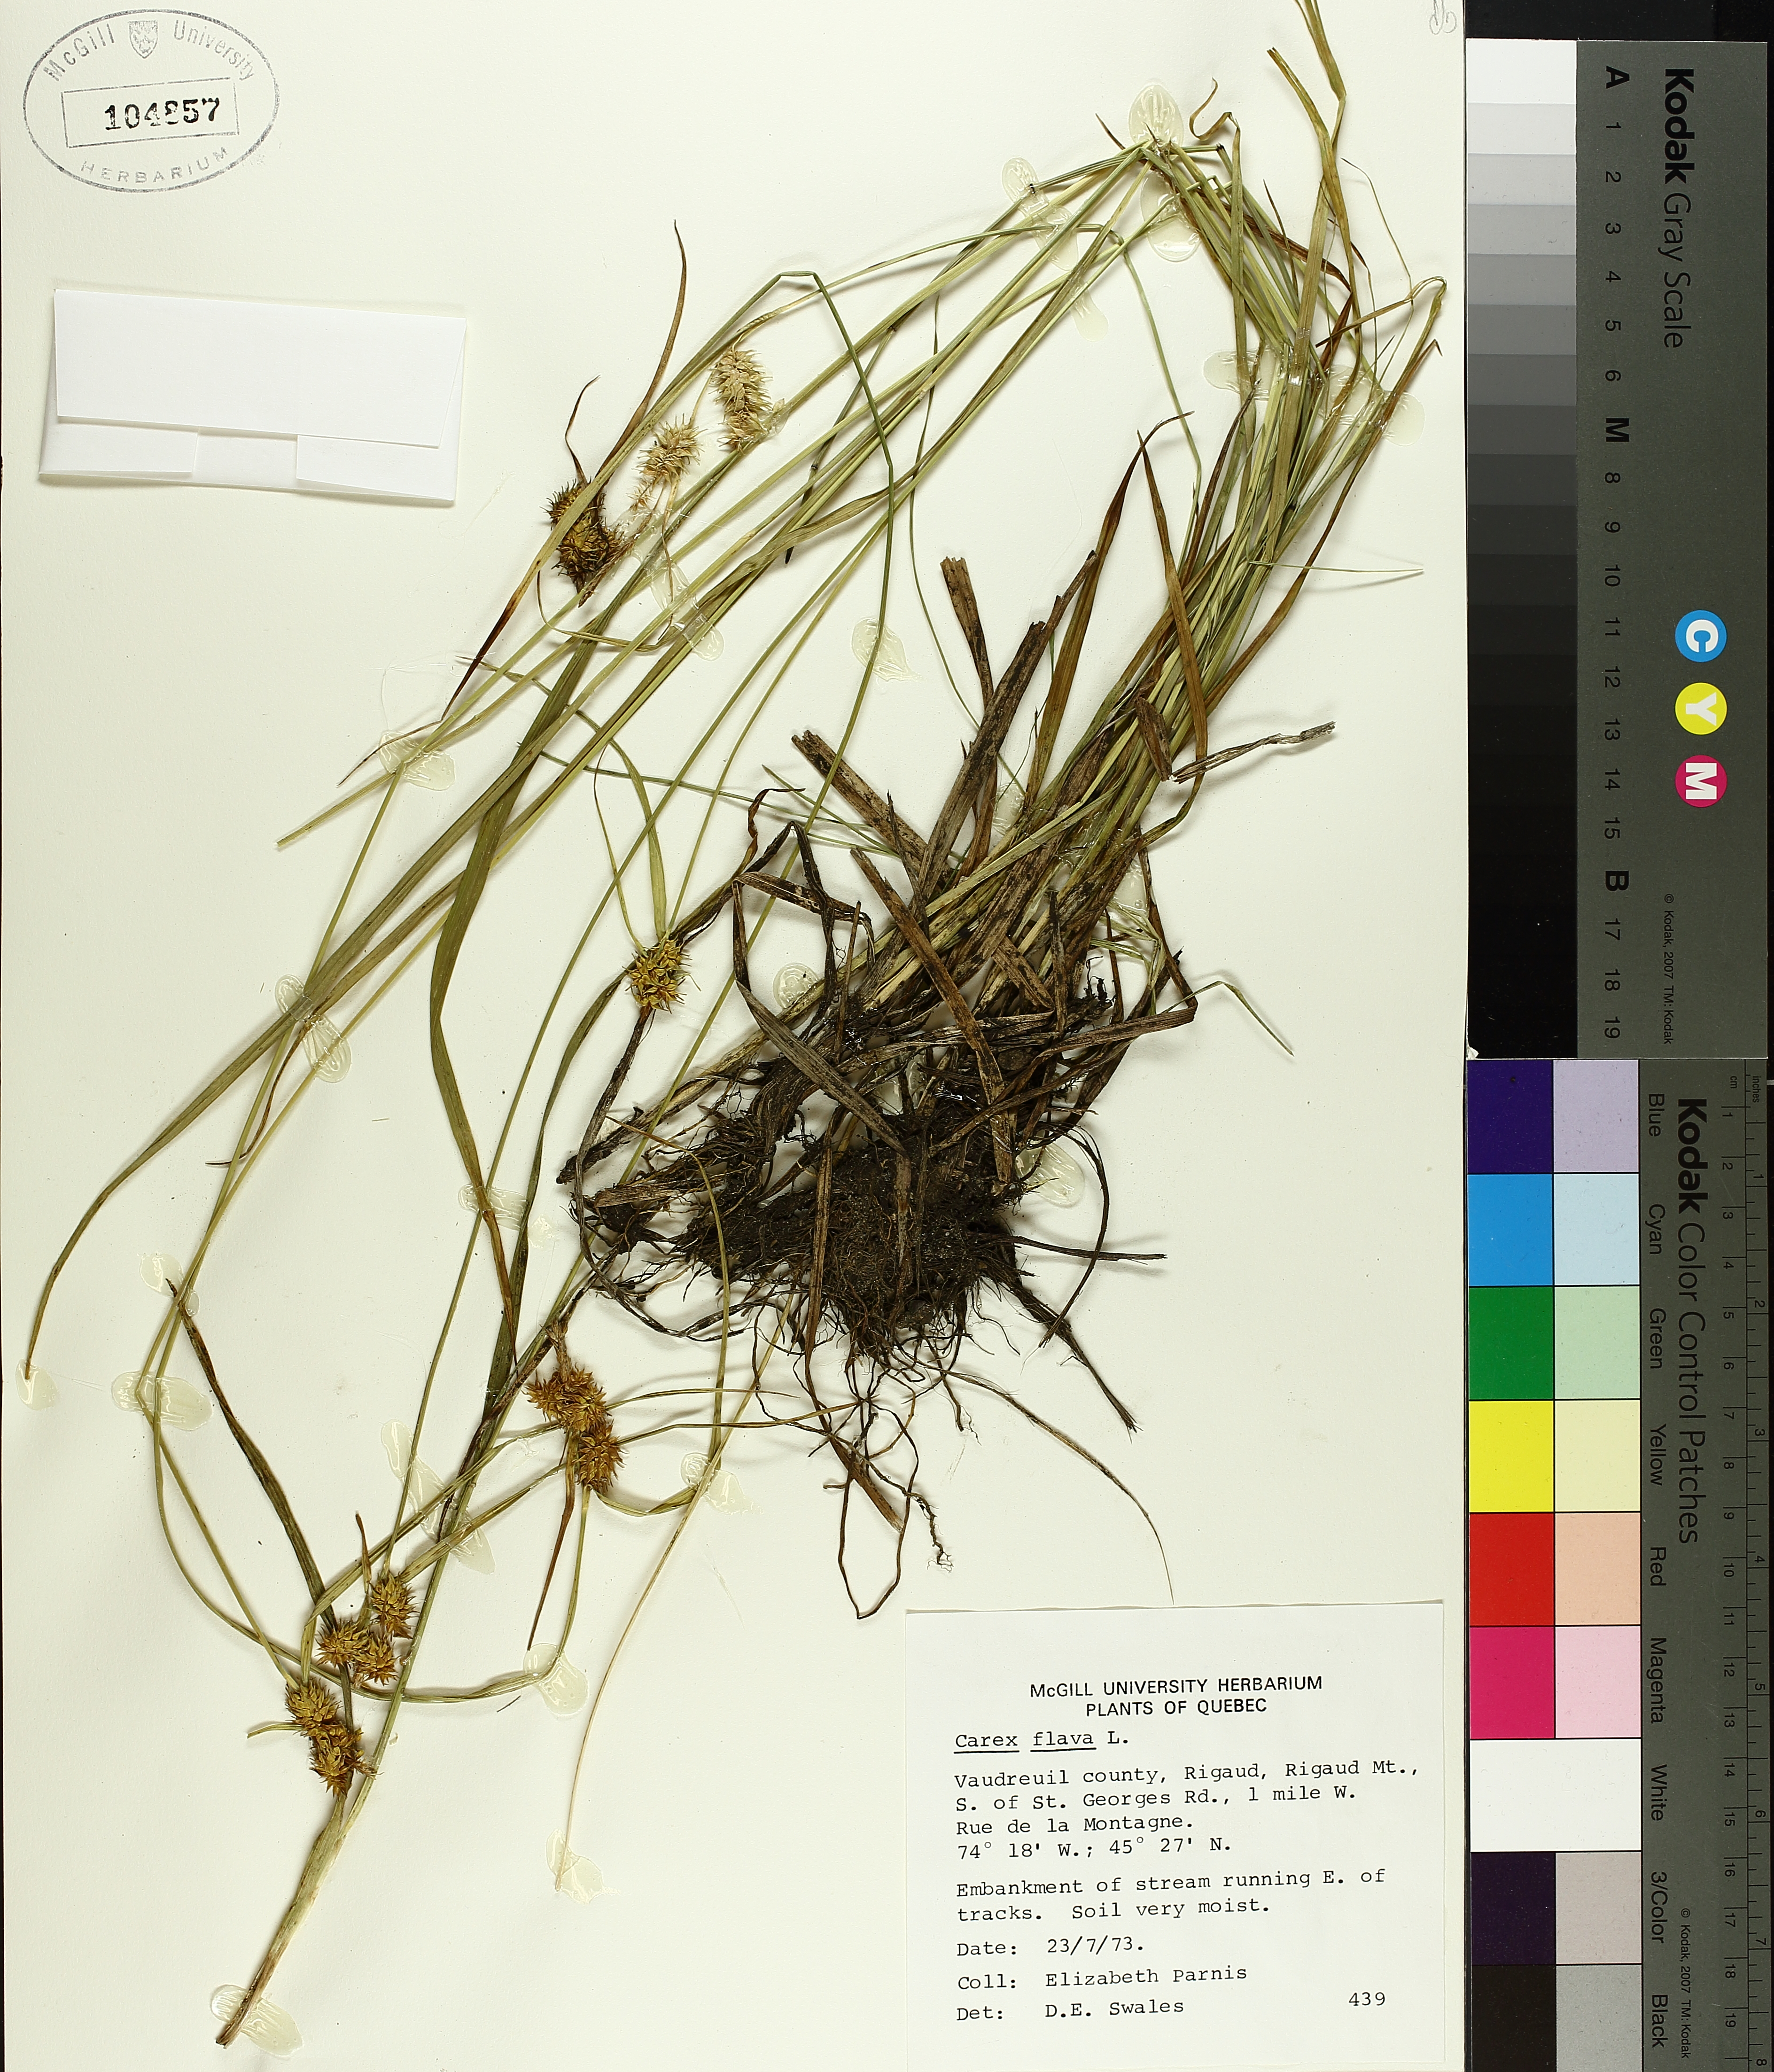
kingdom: Plantae
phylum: Tracheophyta
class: Liliopsida
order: Poales
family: Cyperaceae
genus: Carex
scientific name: Carex flava
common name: Large yellow-sedge
